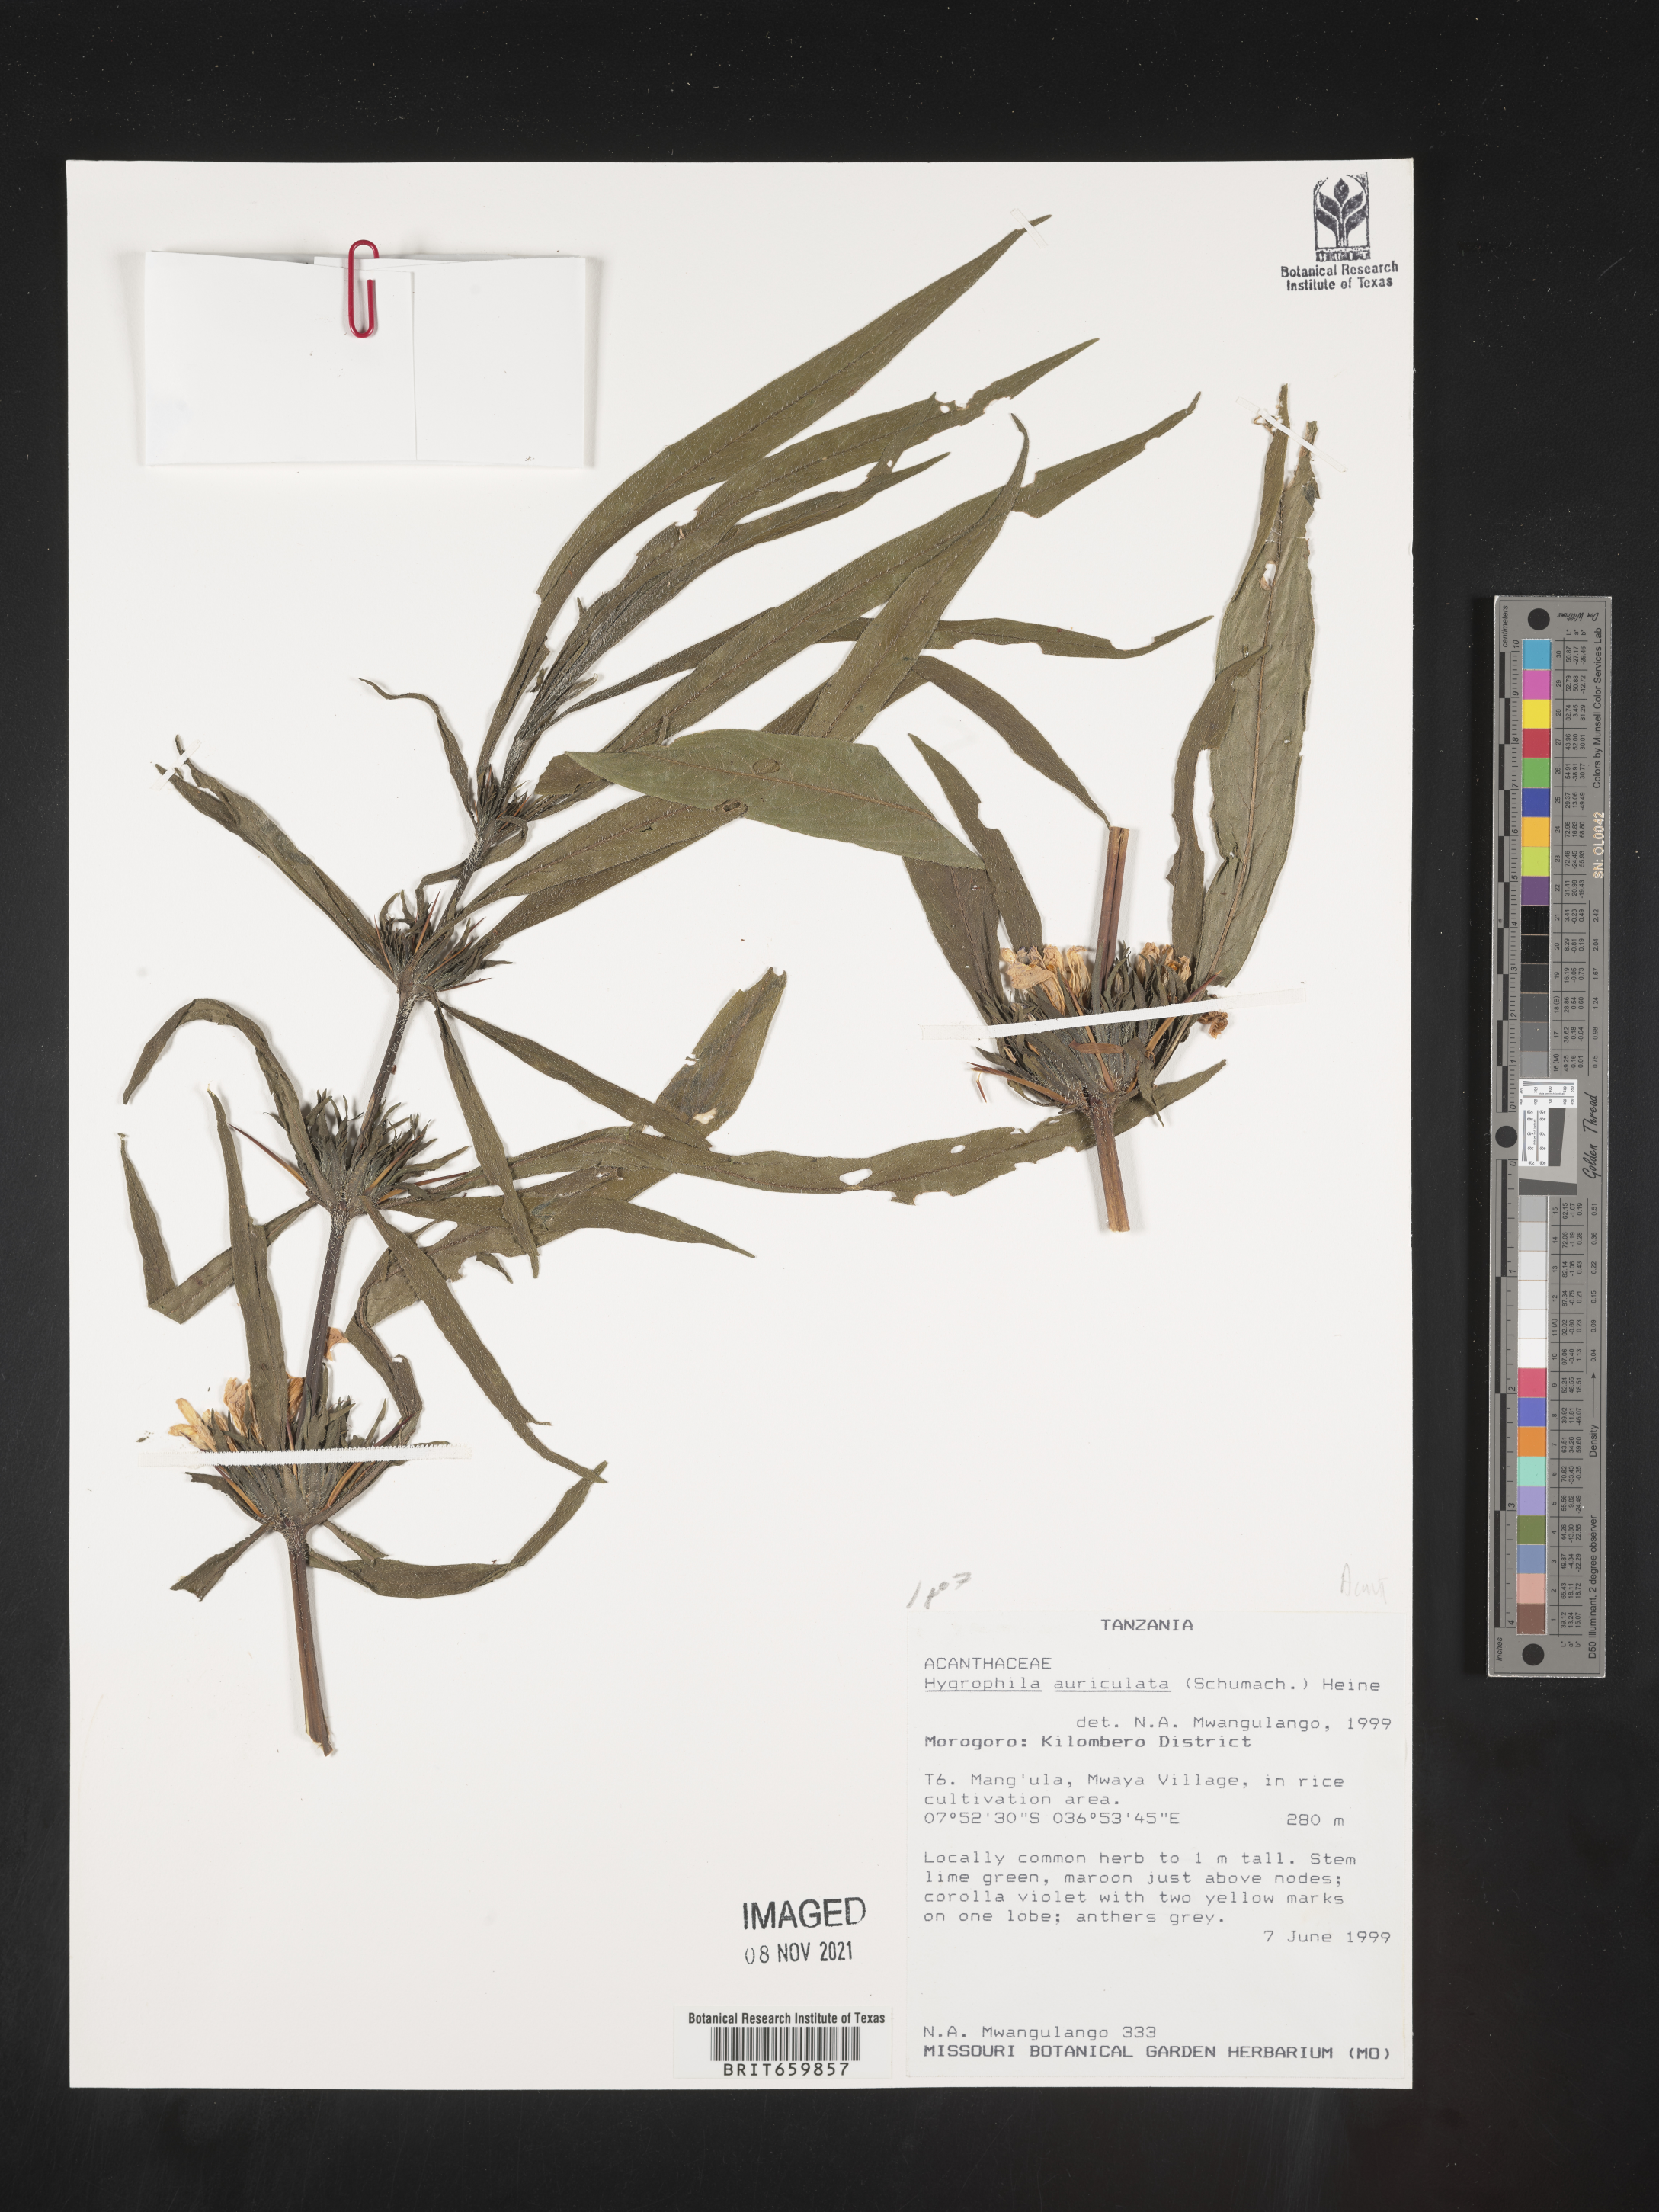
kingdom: Plantae
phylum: Tracheophyta
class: Magnoliopsida
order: Lamiales
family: Acanthaceae
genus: Hygrophila
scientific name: Hygrophila auriculata
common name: Hygrophila
